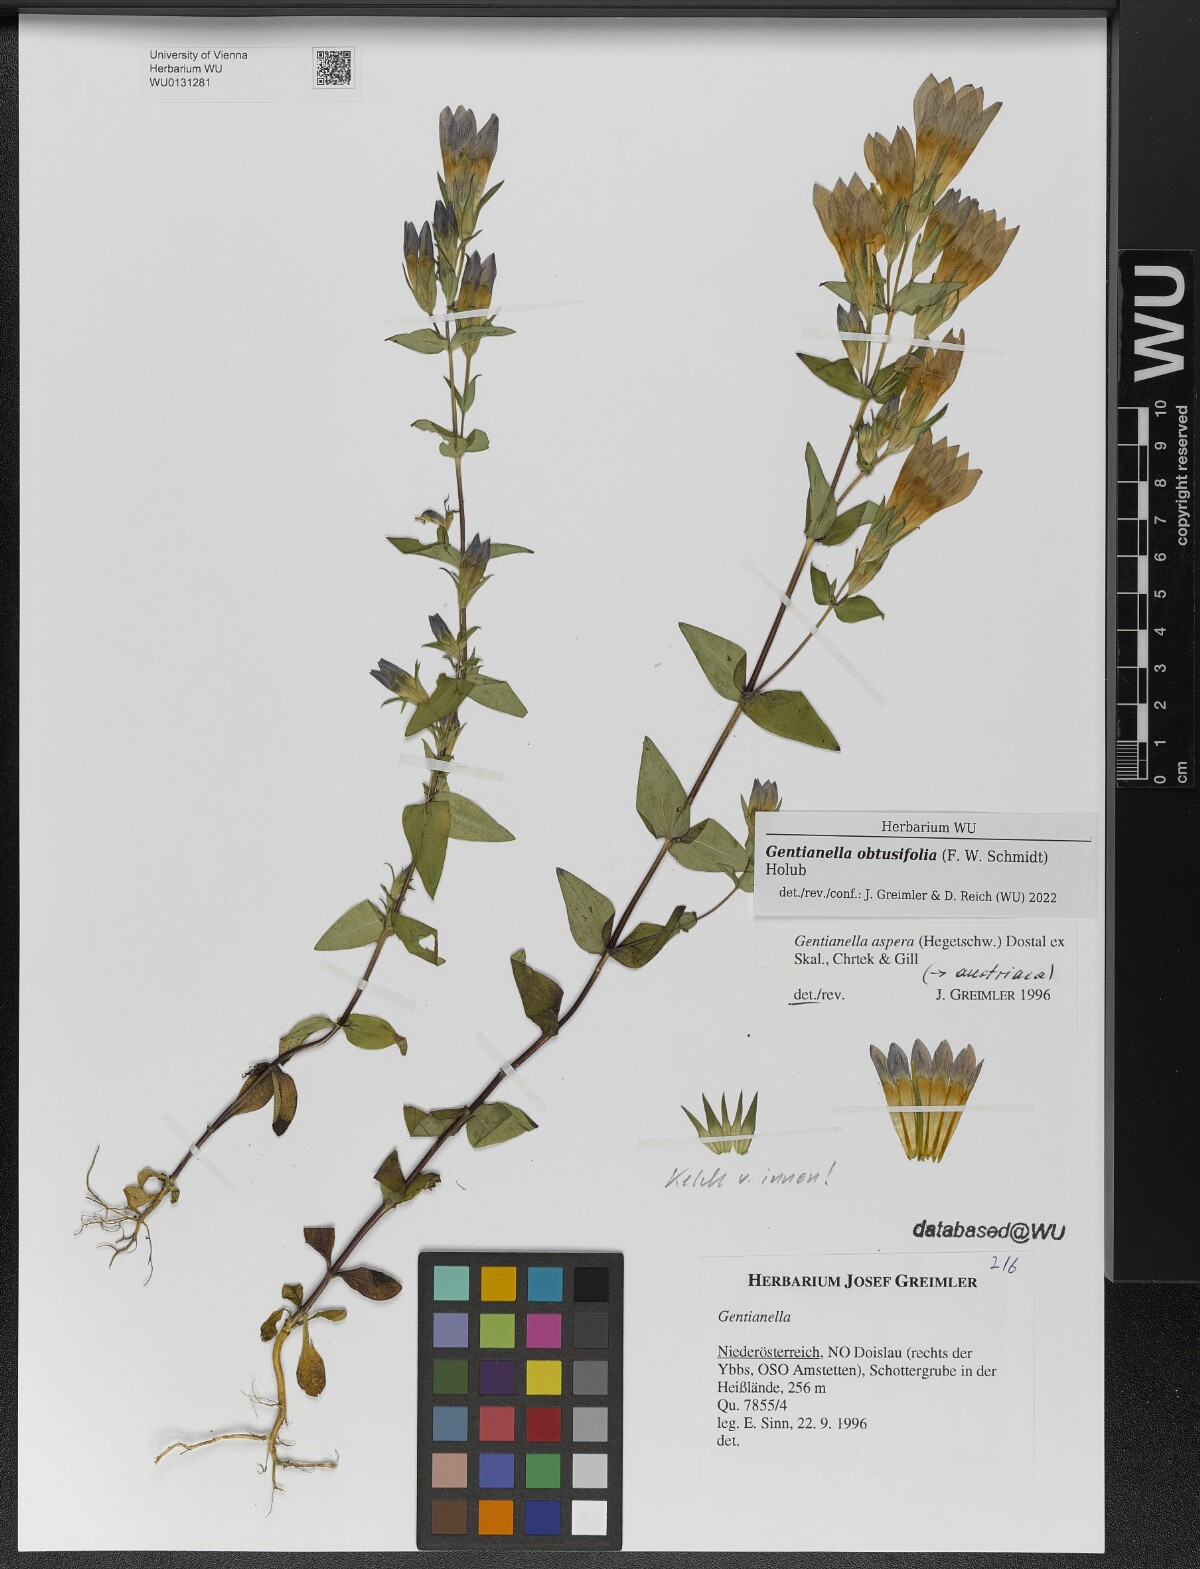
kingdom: Plantae
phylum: Tracheophyta
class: Magnoliopsida
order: Gentianales
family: Gentianaceae
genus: Gentianella
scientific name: Gentianella obtusifolia
